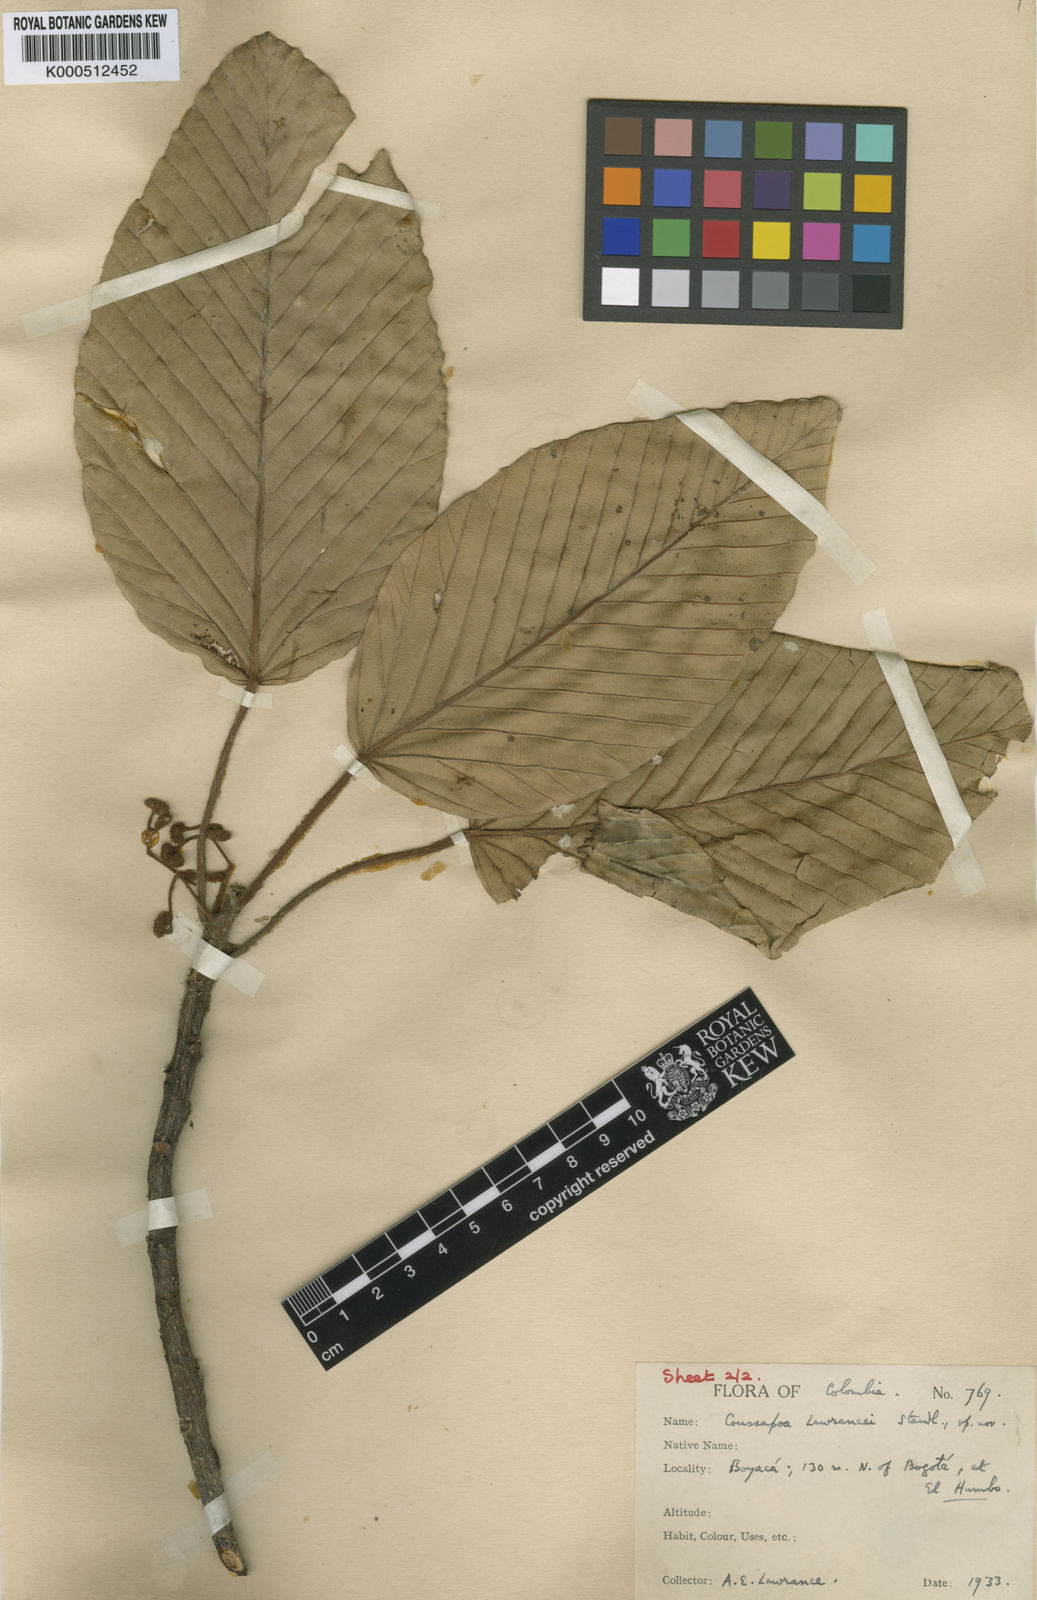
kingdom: Plantae
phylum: Tracheophyta
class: Magnoliopsida
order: Rosales
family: Urticaceae
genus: Coussapoa
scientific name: Coussapoa villosa
